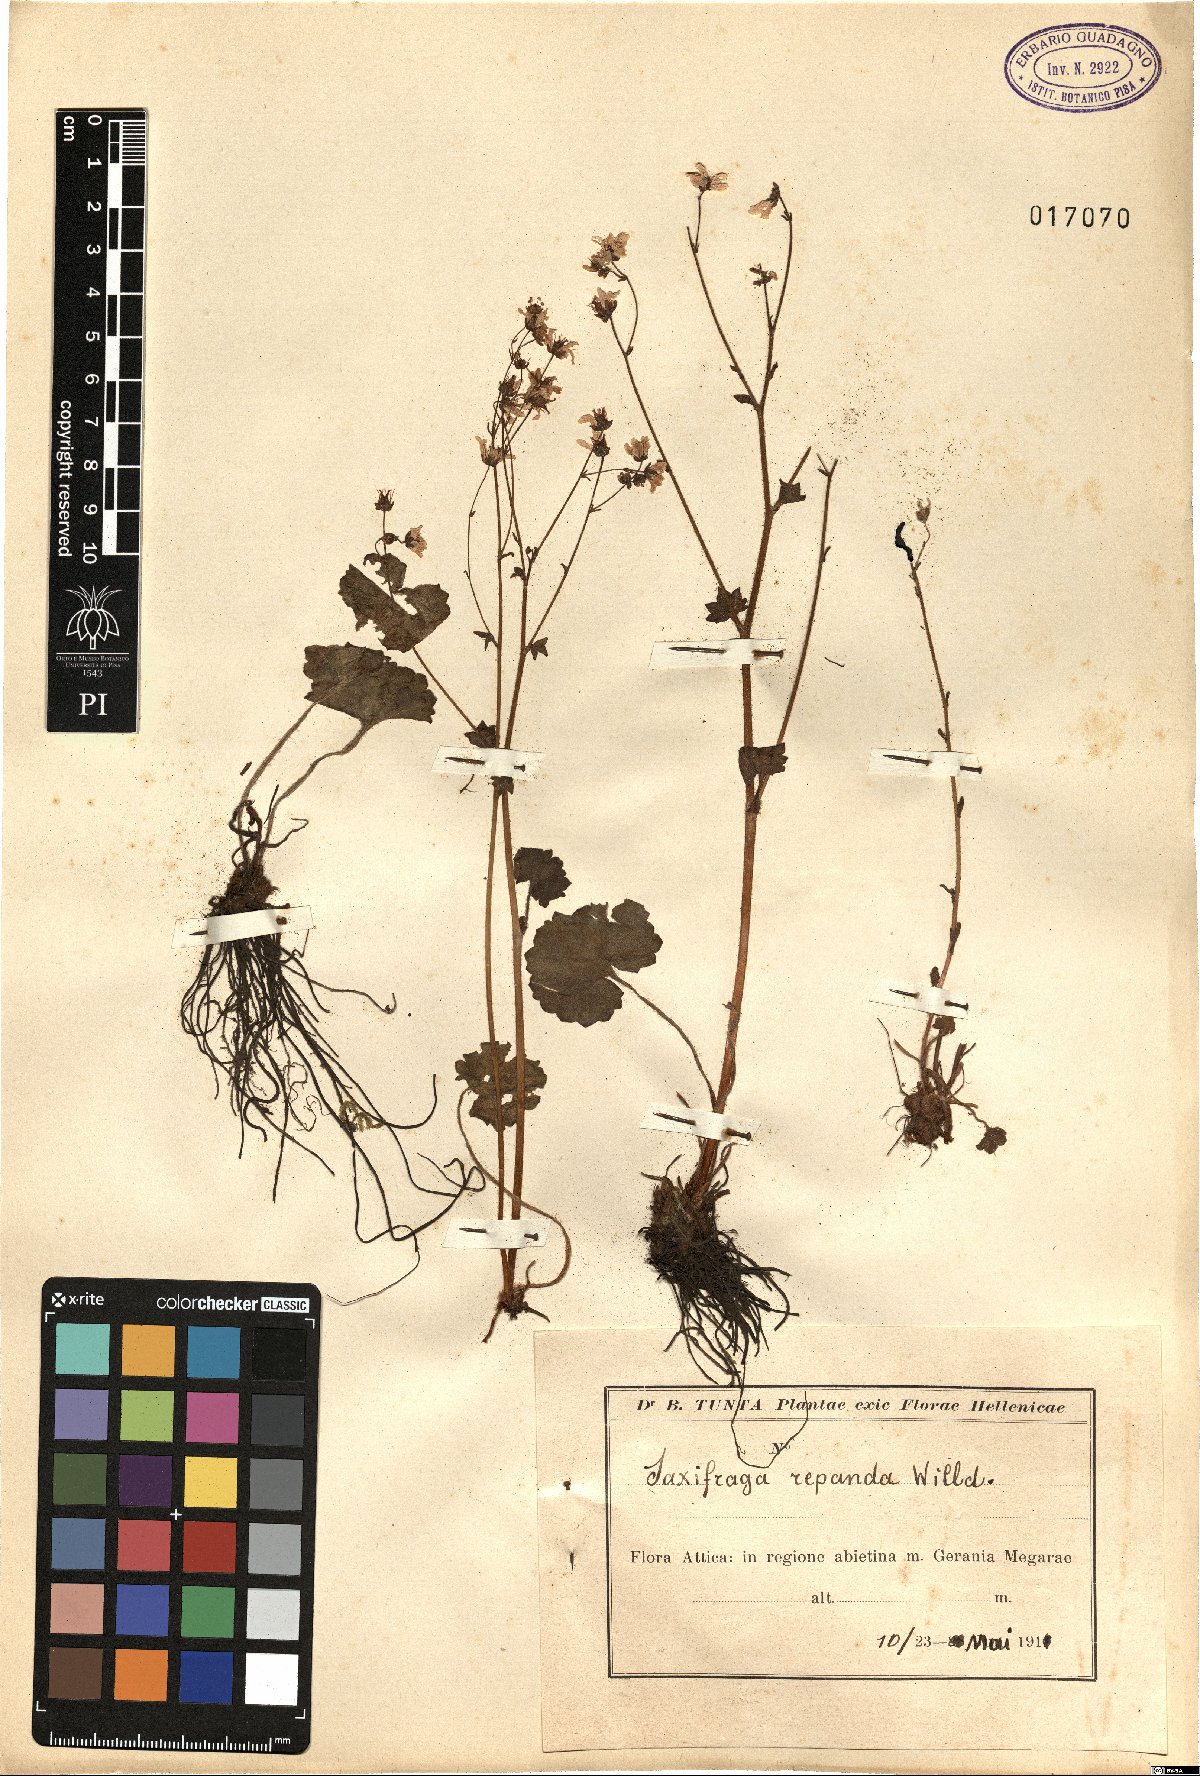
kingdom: Plantae
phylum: Tracheophyta
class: Magnoliopsida
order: Saxifragales
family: Saxifragaceae
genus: Saxifraga
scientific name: Saxifraga repanda
